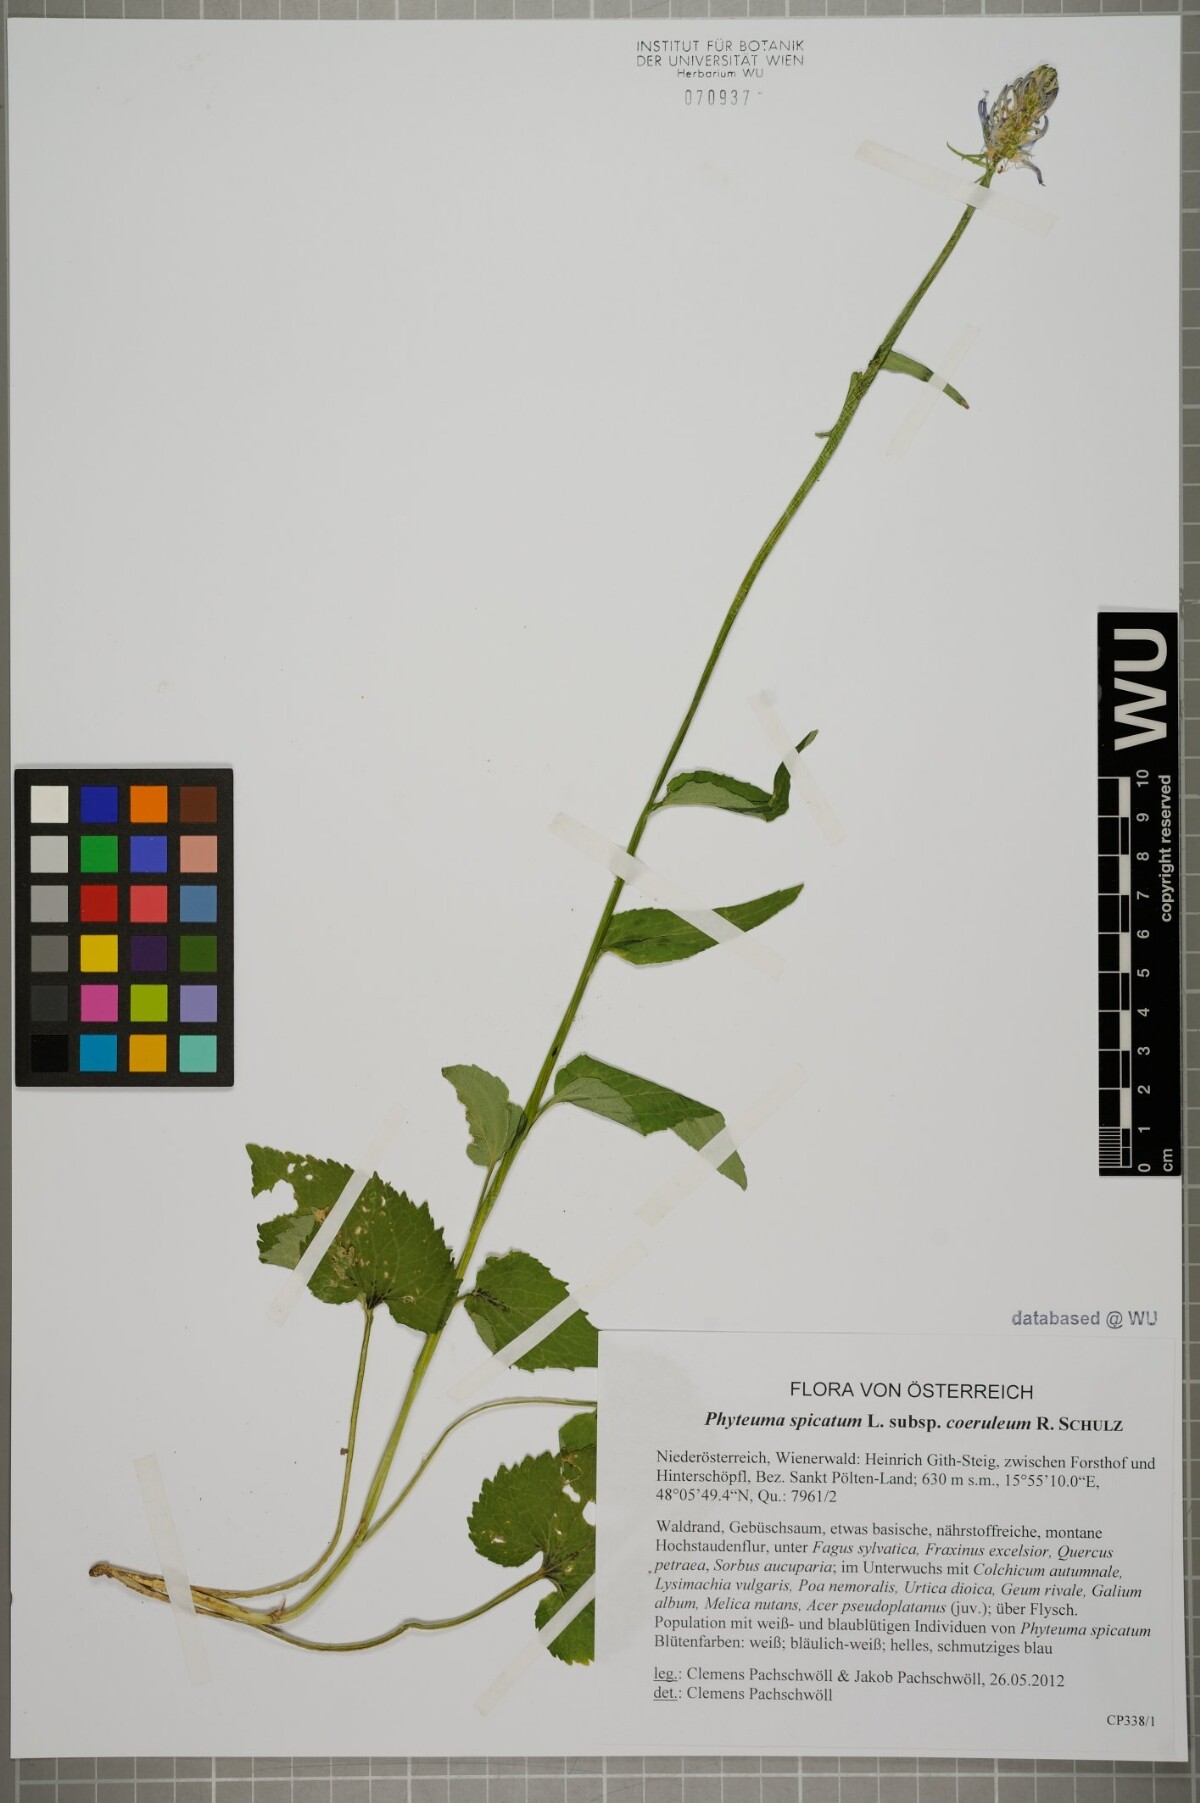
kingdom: Plantae
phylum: Tracheophyta
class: Magnoliopsida
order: Asterales
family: Campanulaceae
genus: Phyteuma
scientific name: Phyteuma spicatum
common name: Spiked rampion
